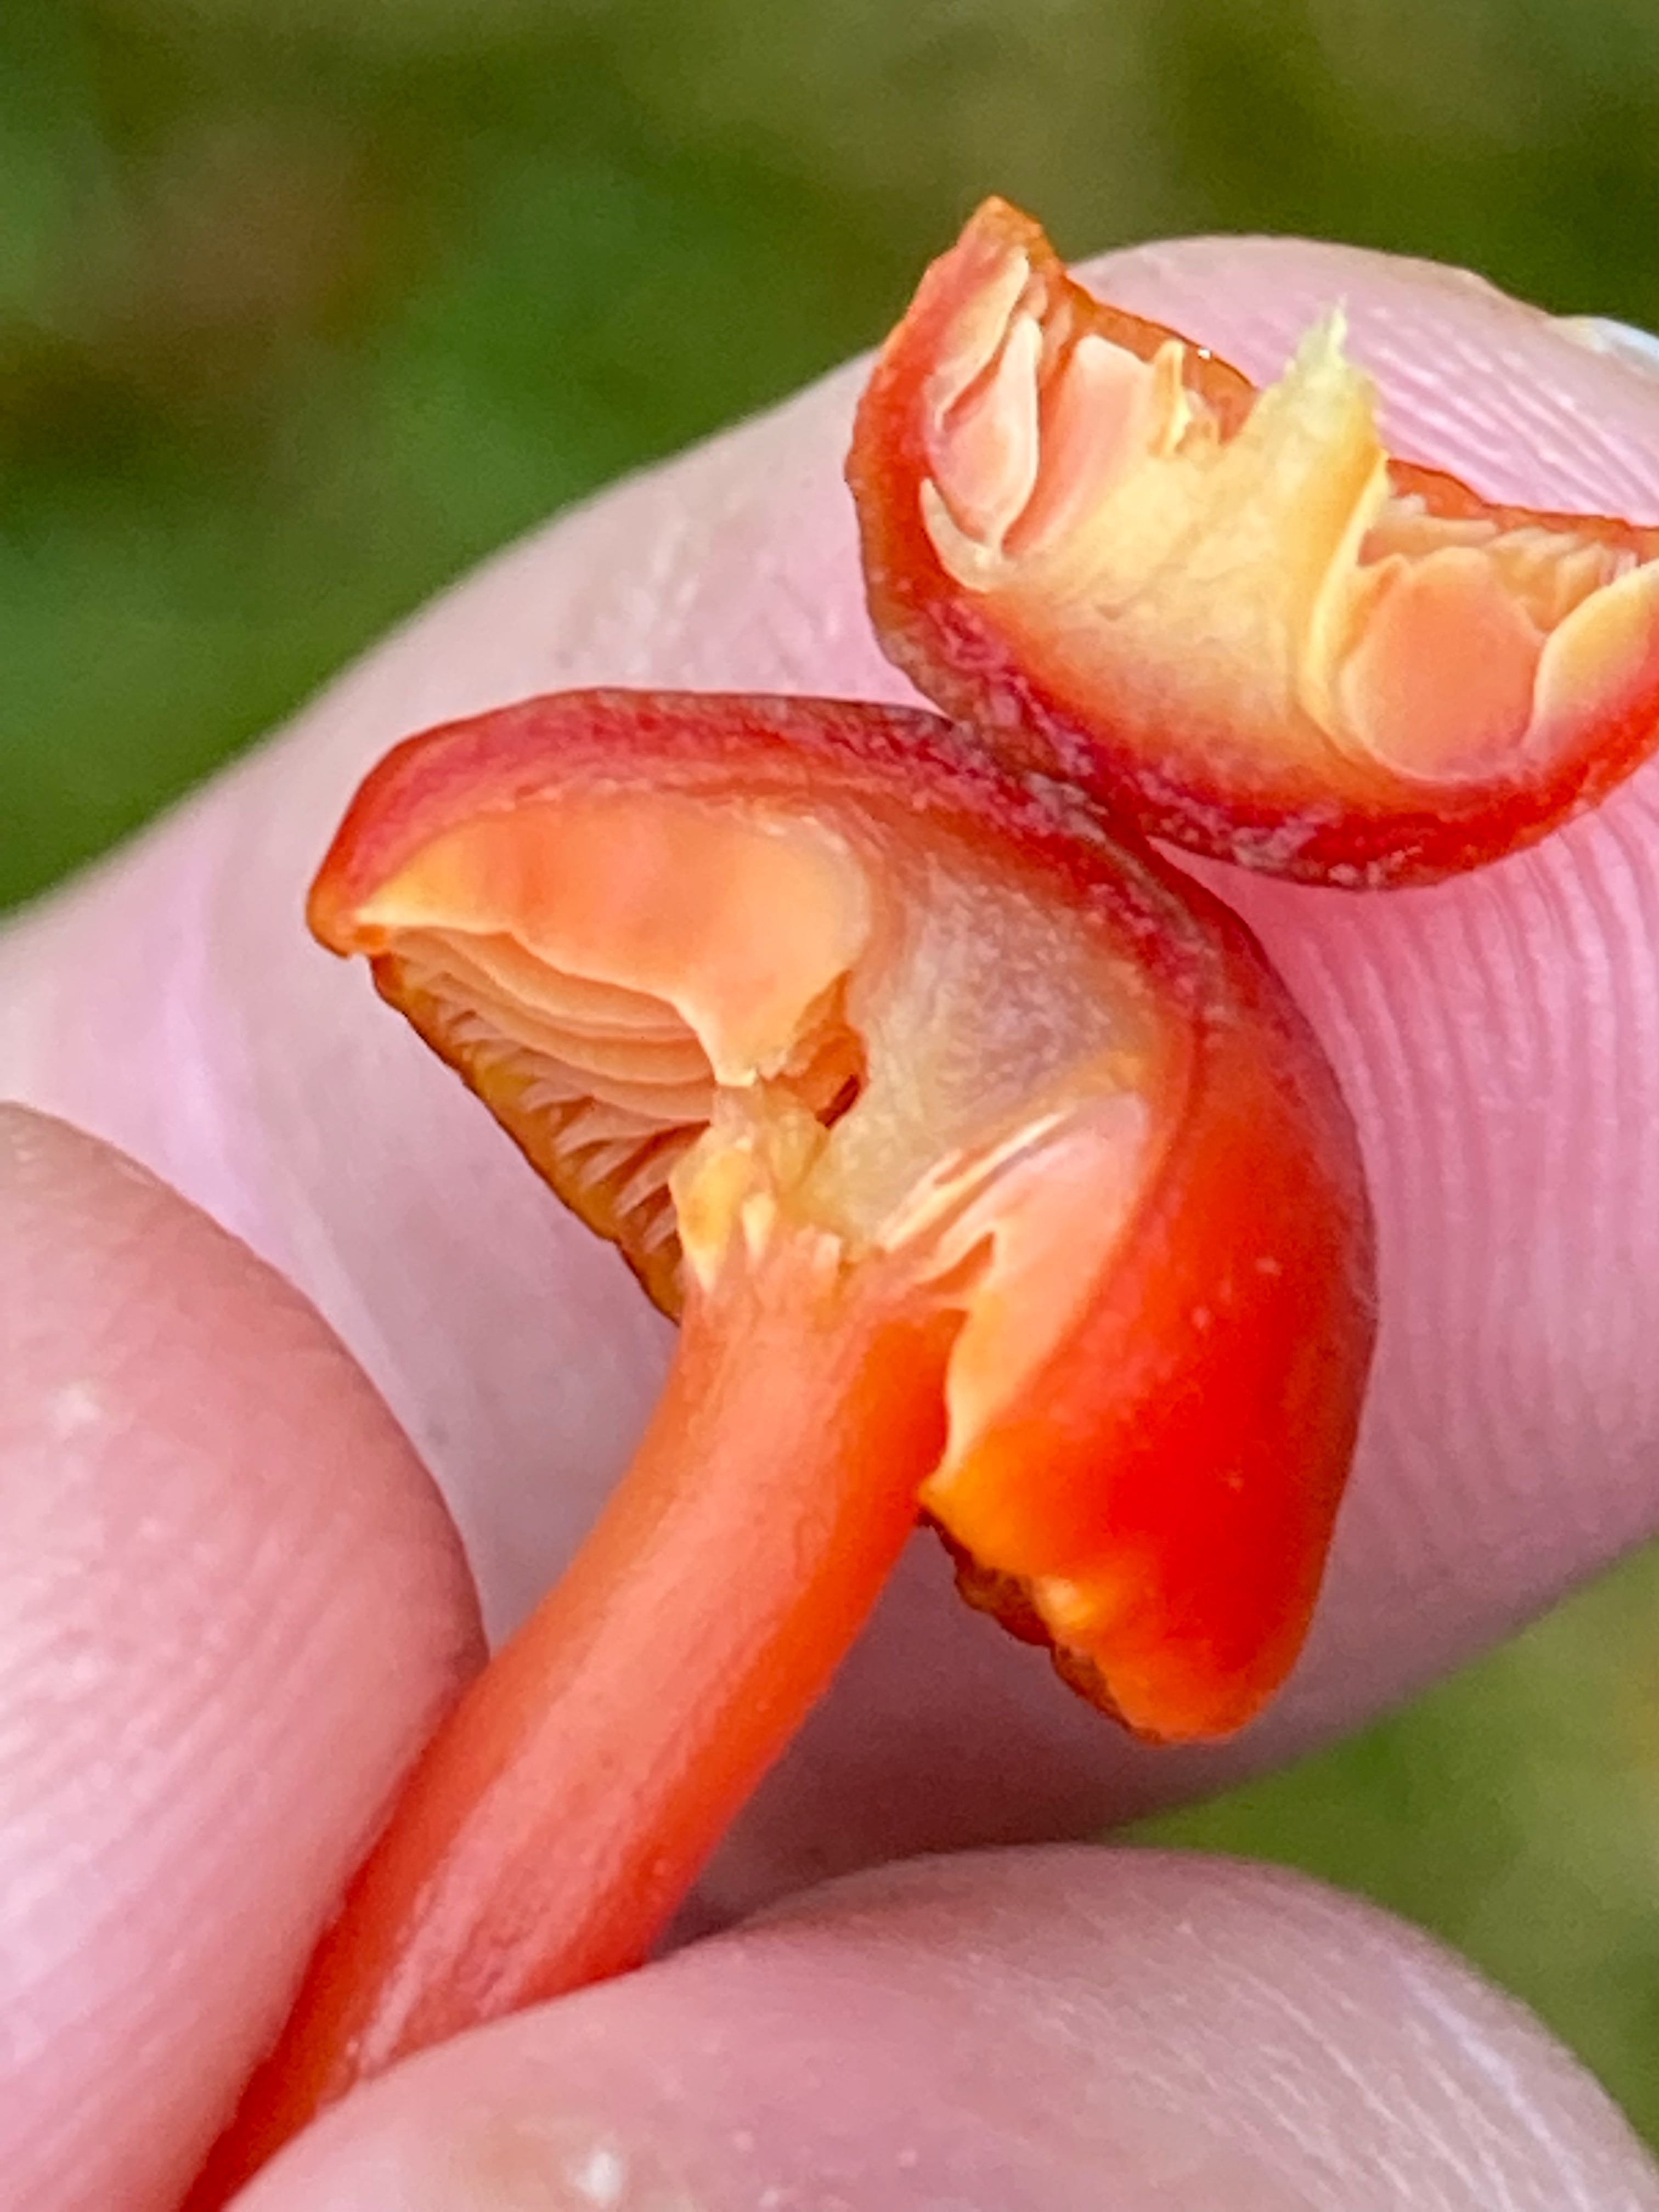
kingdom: Fungi
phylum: Basidiomycota
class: Agaricomycetes
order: Agaricales
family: Hygrophoraceae
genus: Hygrocybe
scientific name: Hygrocybe coccinea
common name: cinnober-vokshat
